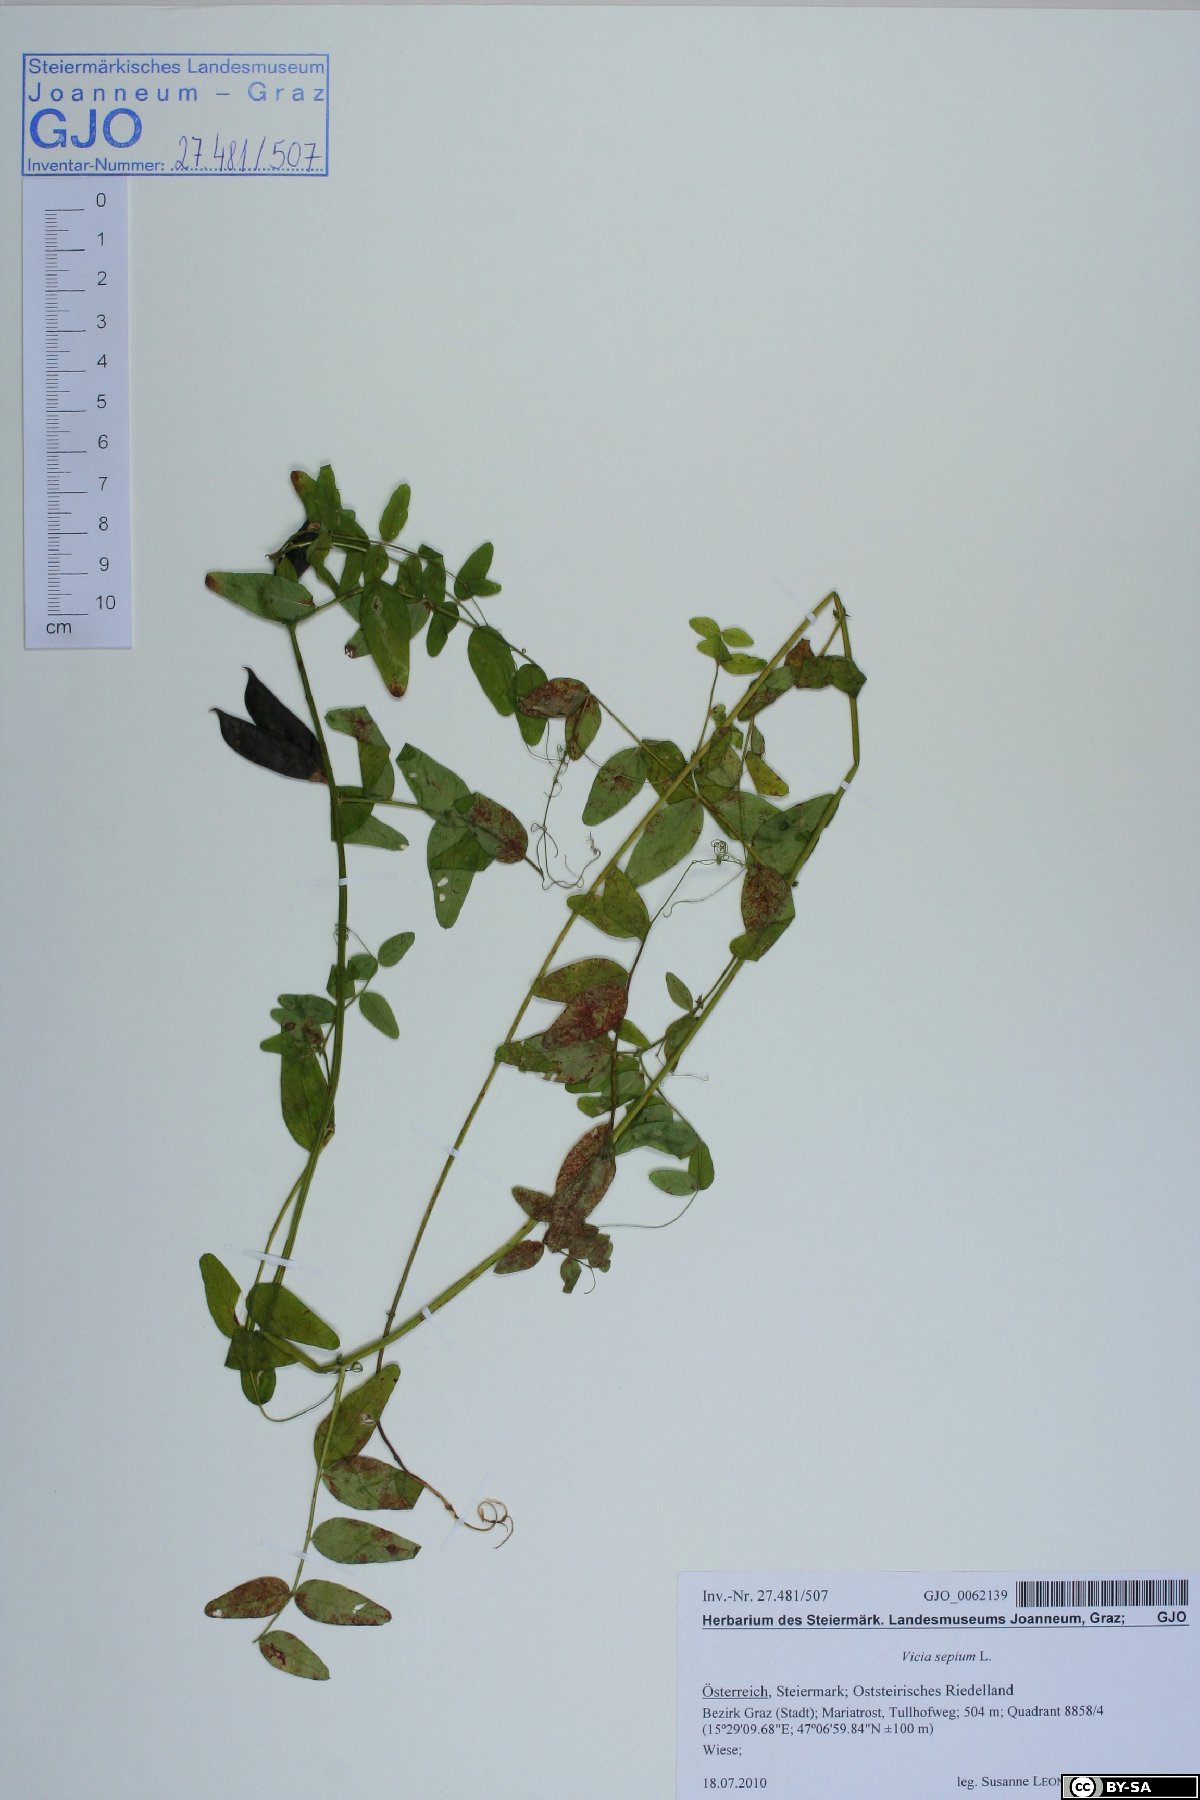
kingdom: Plantae
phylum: Tracheophyta
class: Magnoliopsida
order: Fabales
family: Fabaceae
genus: Vicia
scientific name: Vicia sepium
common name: Bush vetch
